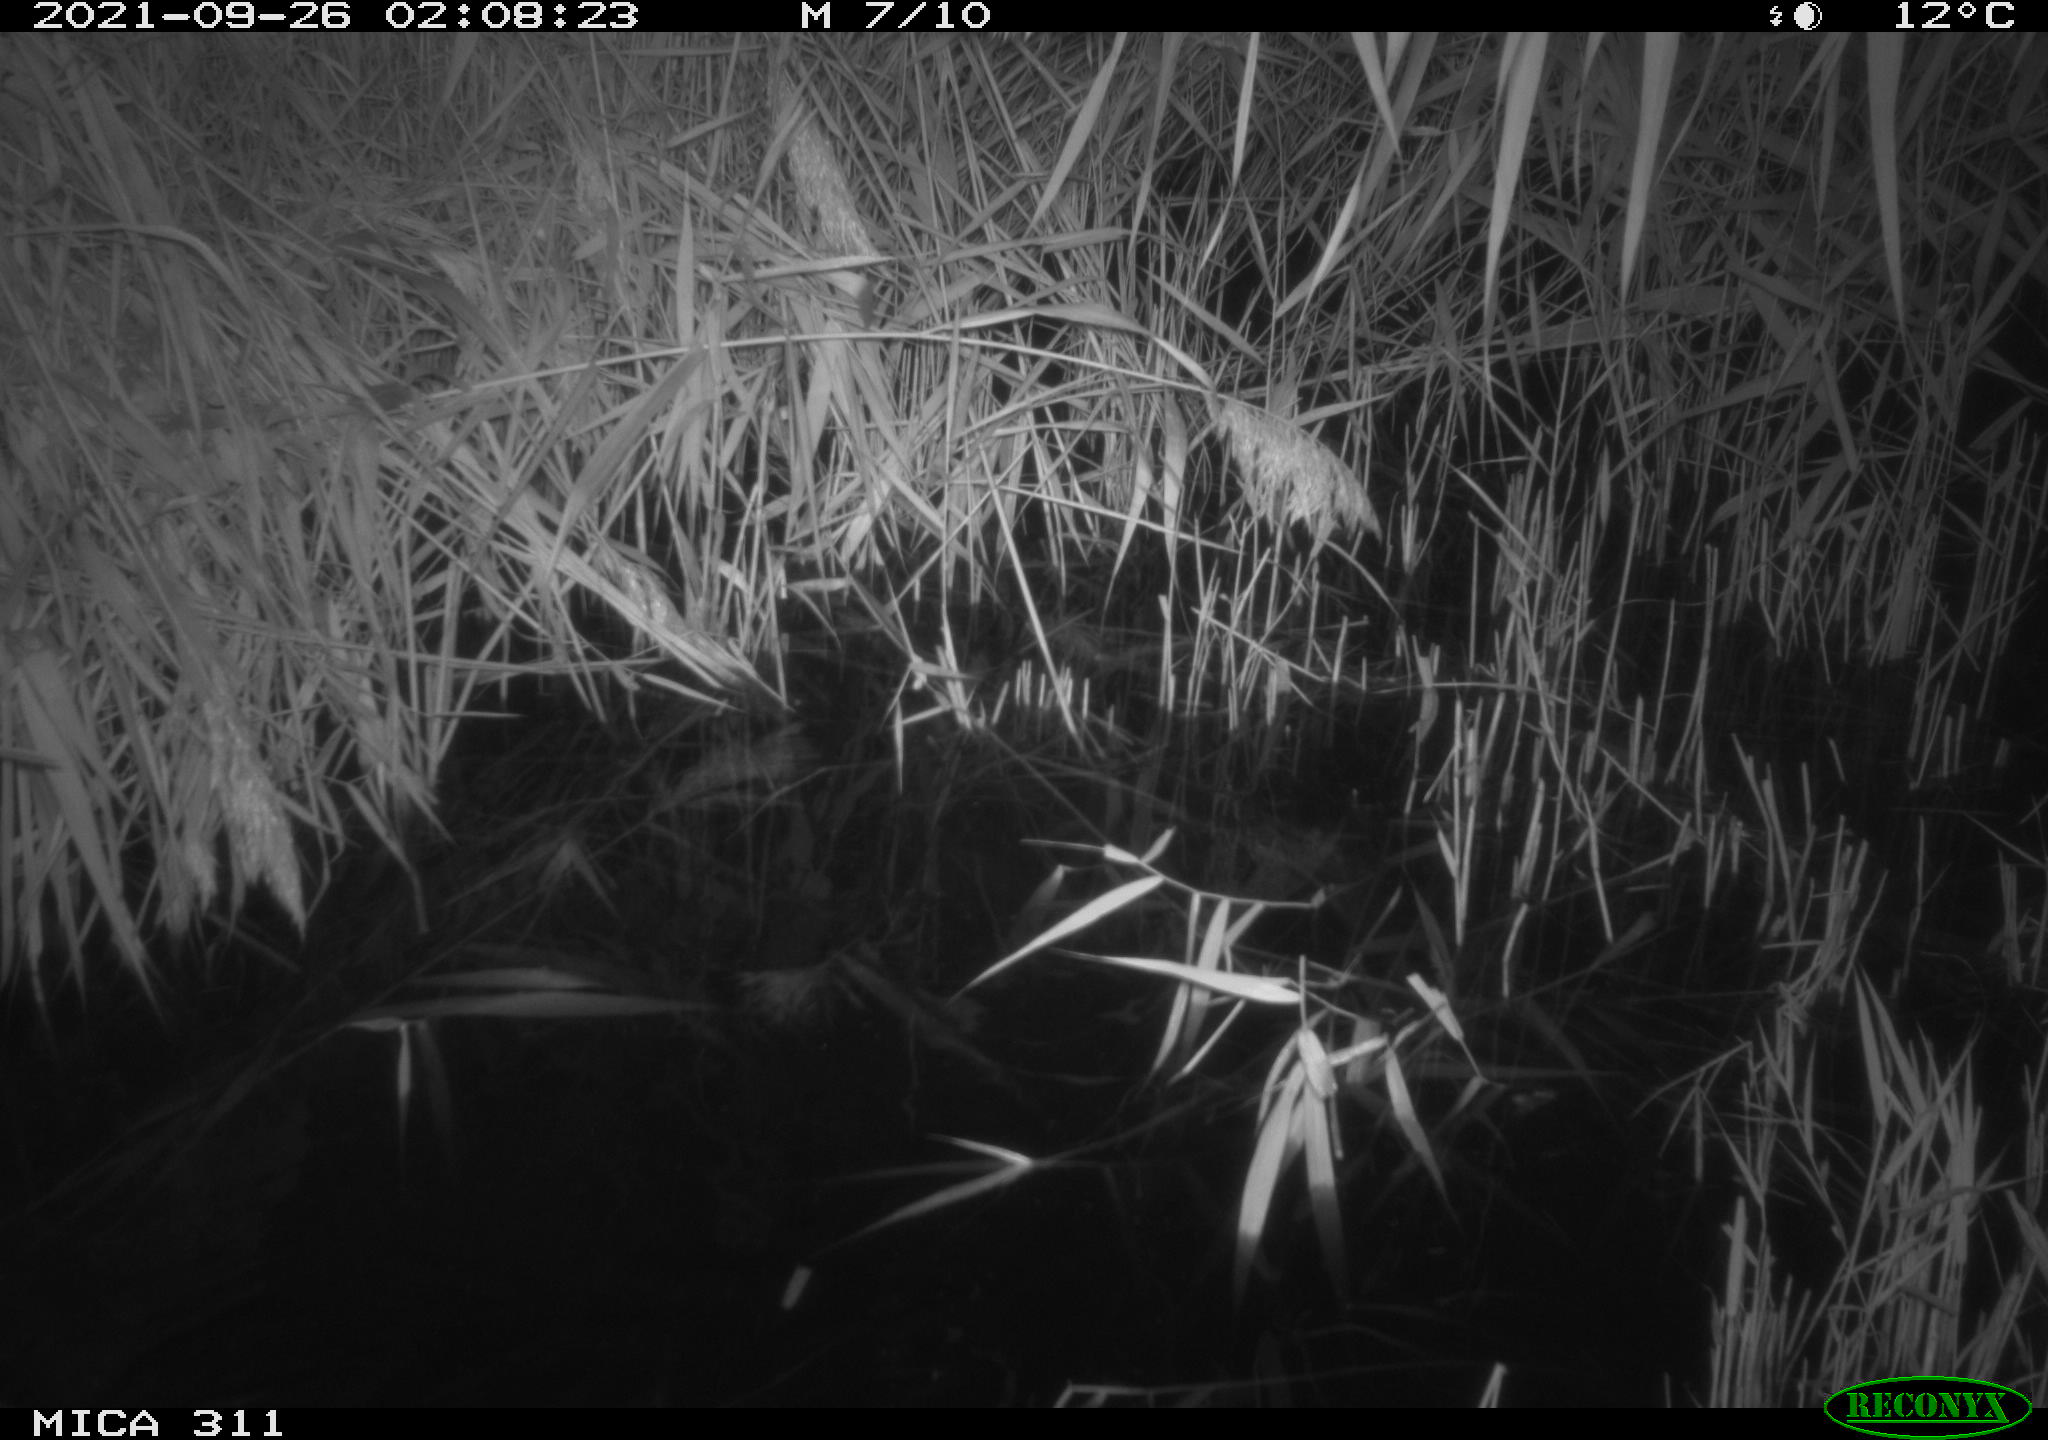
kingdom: Animalia
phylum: Chordata
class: Mammalia
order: Rodentia
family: Muridae
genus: Rattus
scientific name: Rattus norvegicus
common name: Brown rat
